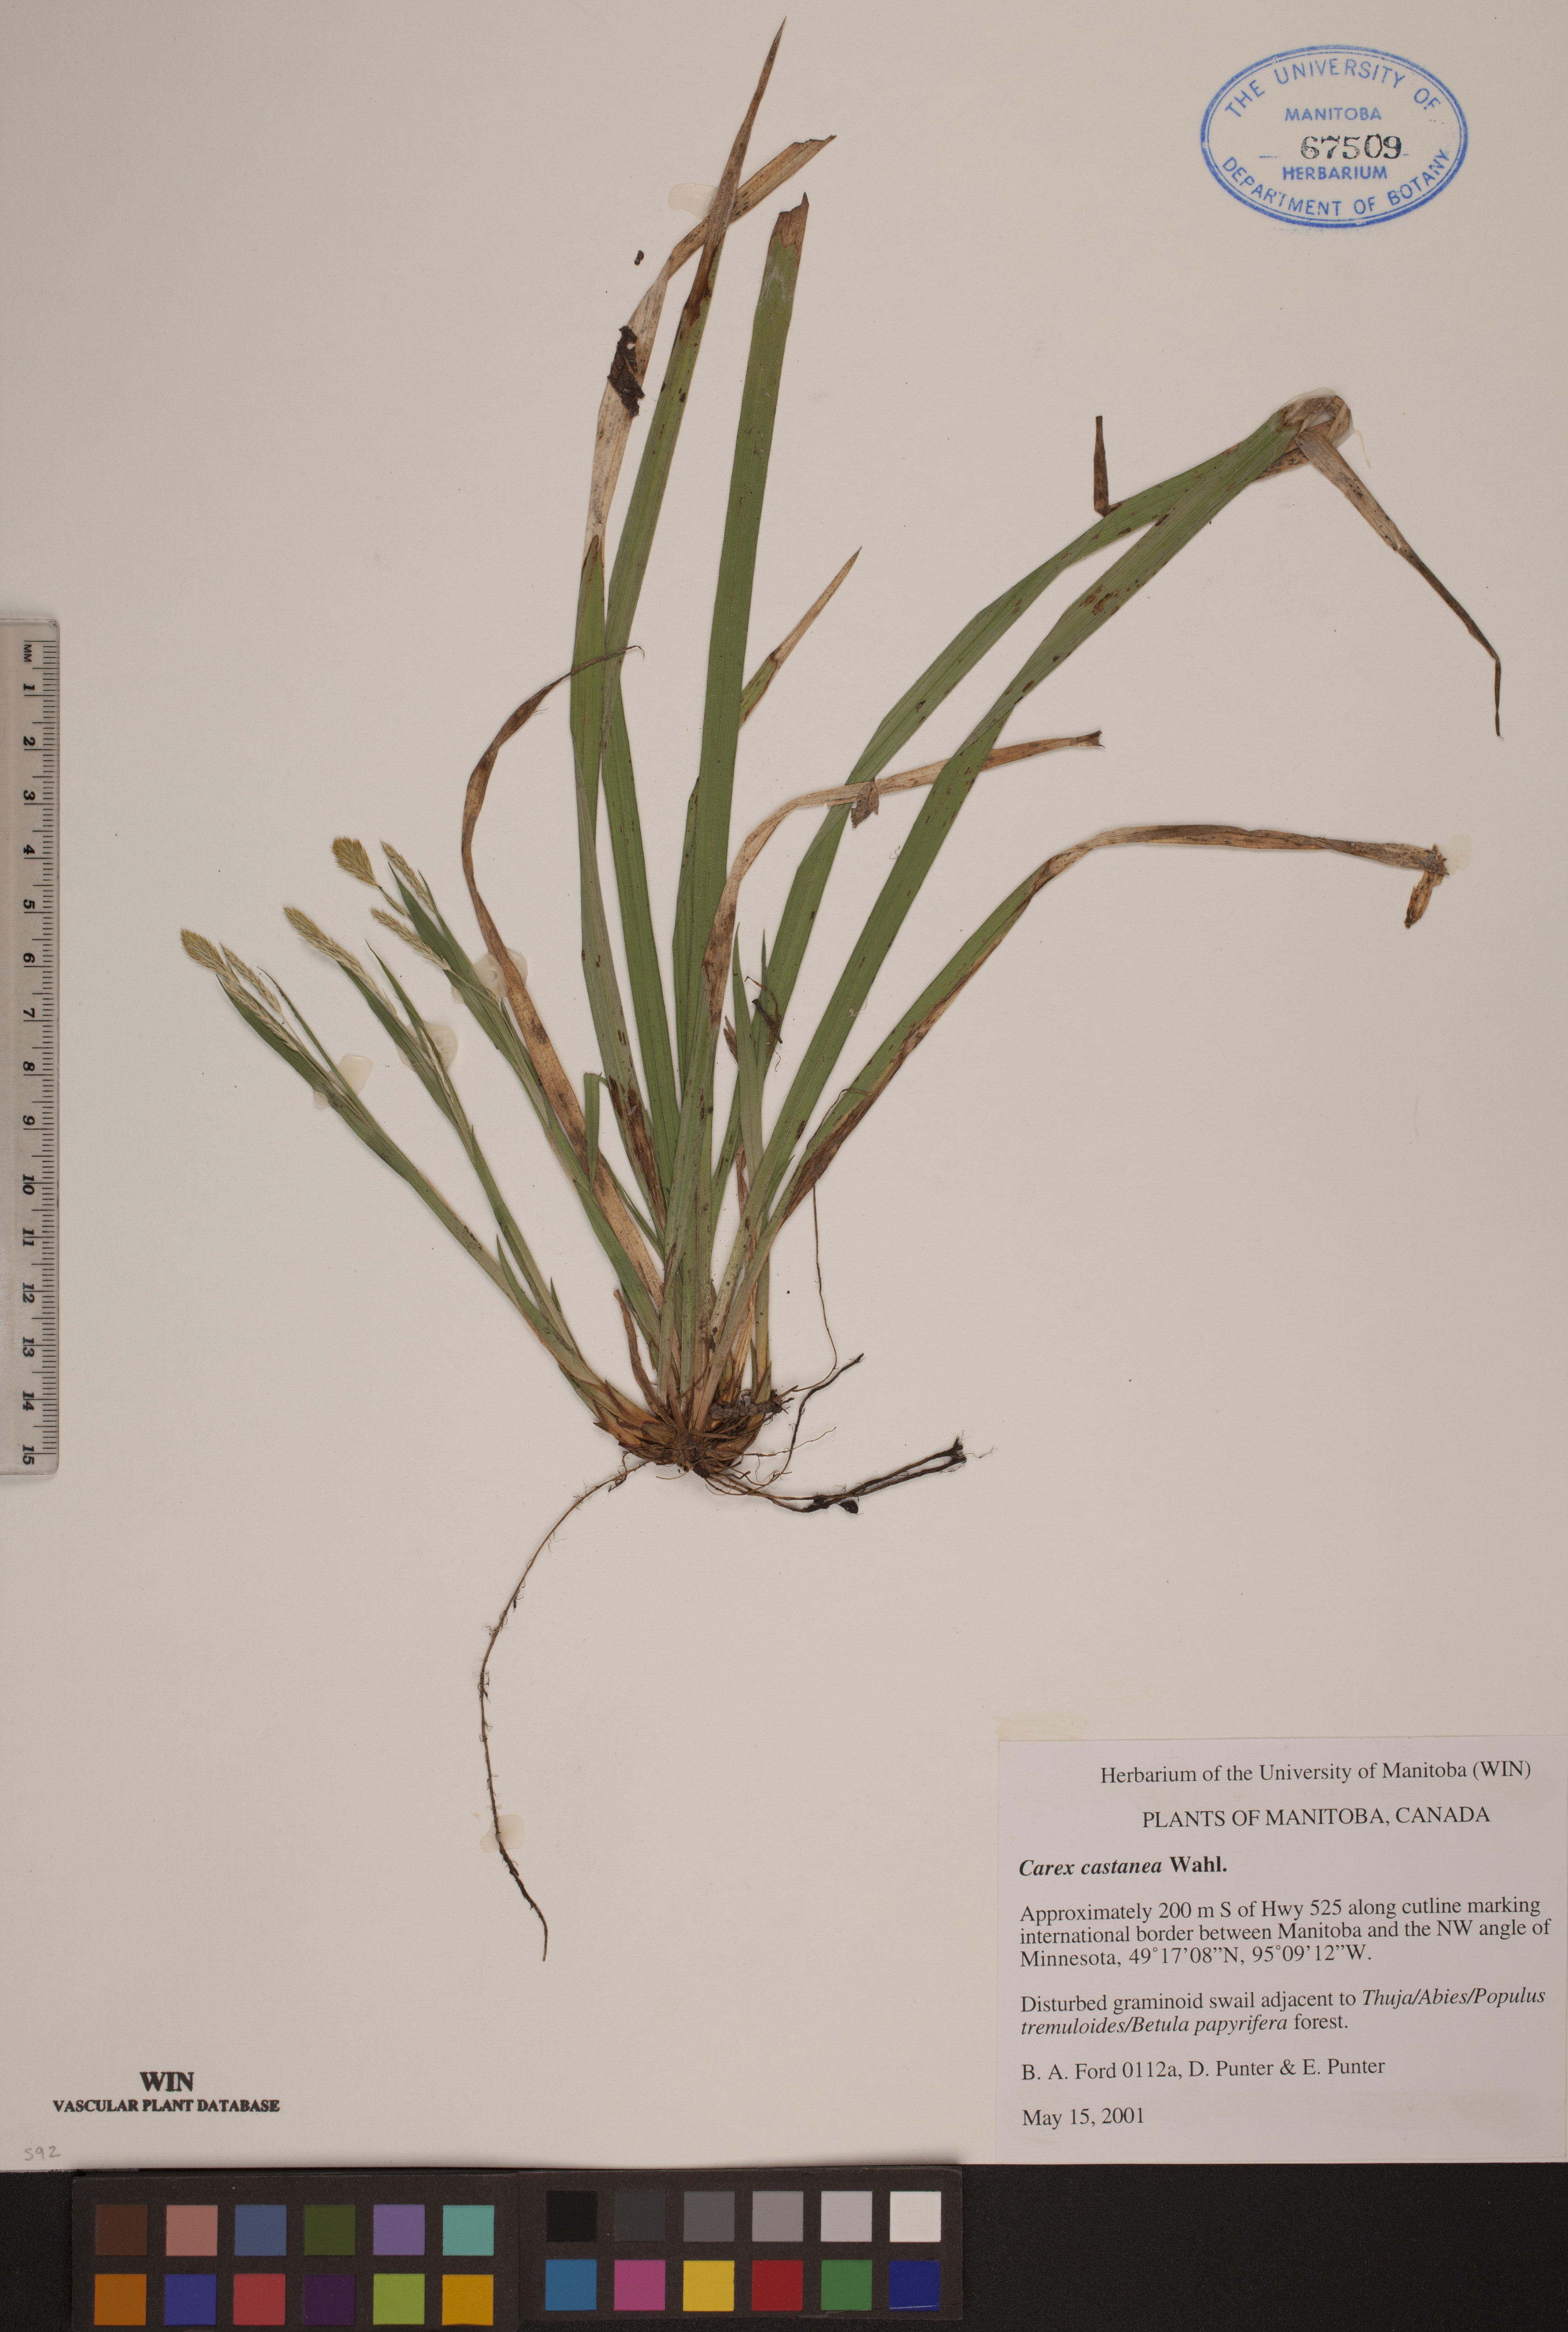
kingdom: Plantae
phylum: Tracheophyta
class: Liliopsida
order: Poales
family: Cyperaceae
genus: Carex
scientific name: Carex castanea
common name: Chestnut sedge
